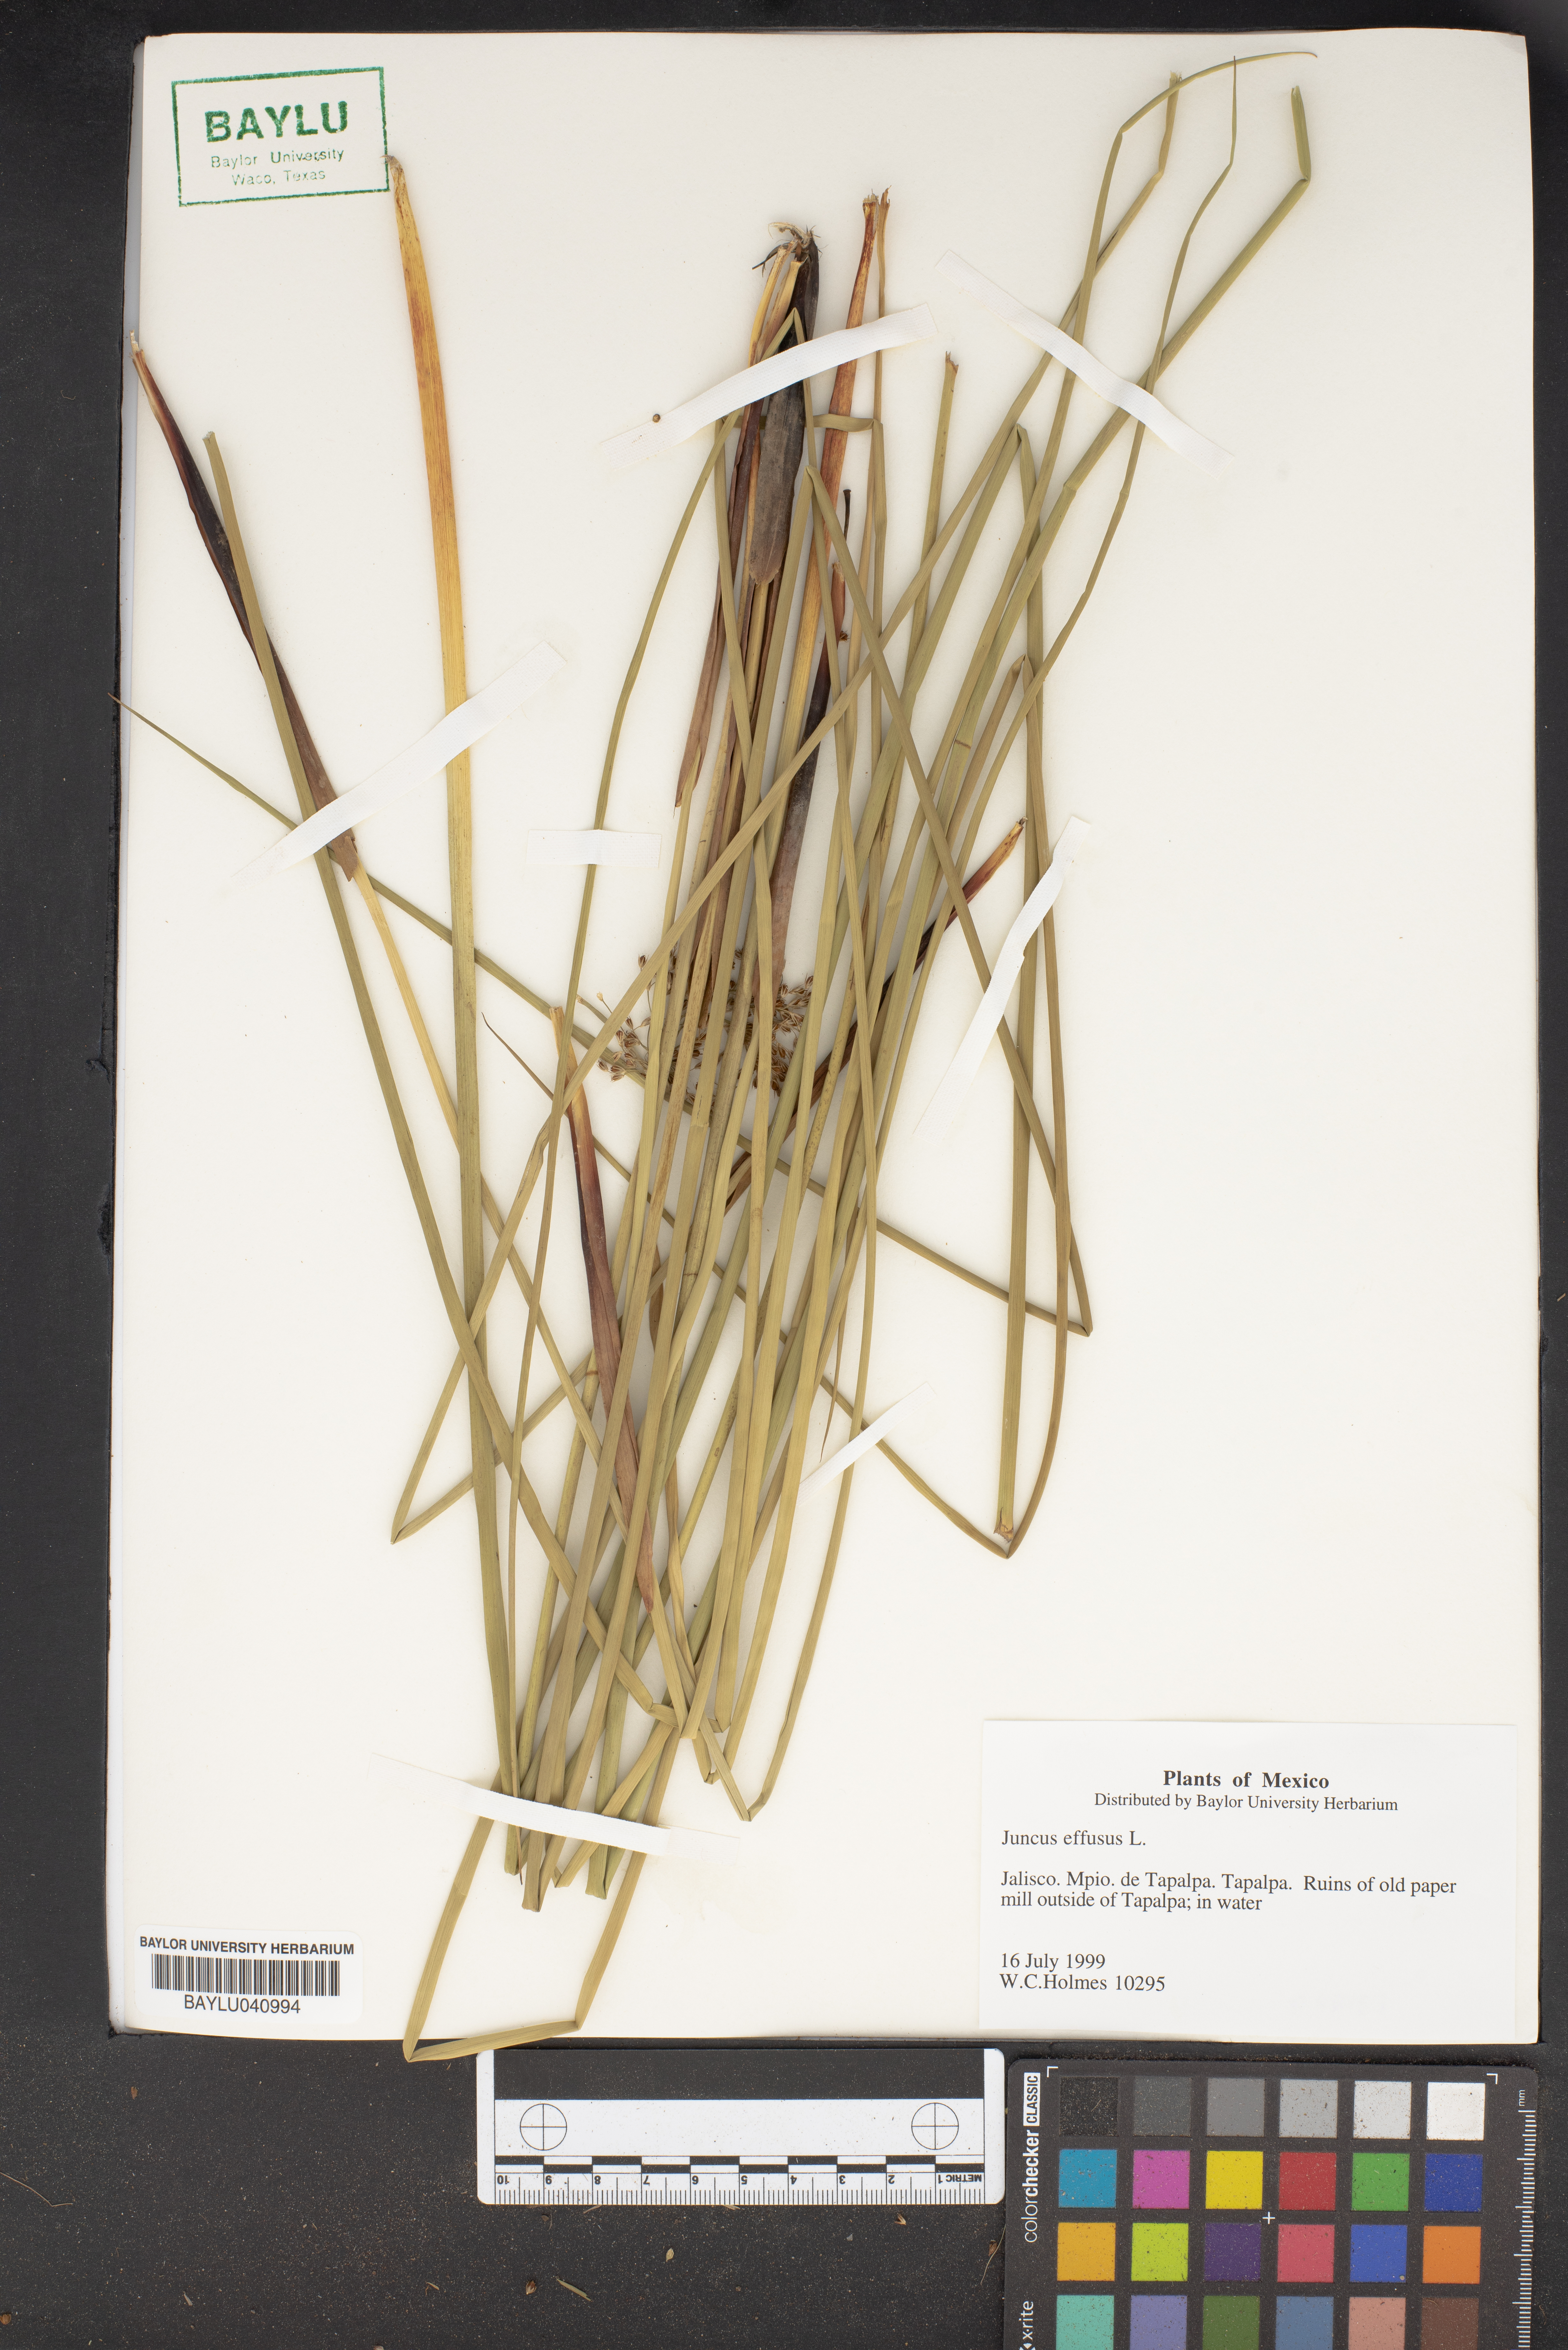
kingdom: Plantae
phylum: Tracheophyta
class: Liliopsida
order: Poales
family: Juncaceae
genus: Juncus
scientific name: Juncus effusus
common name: Soft rush
